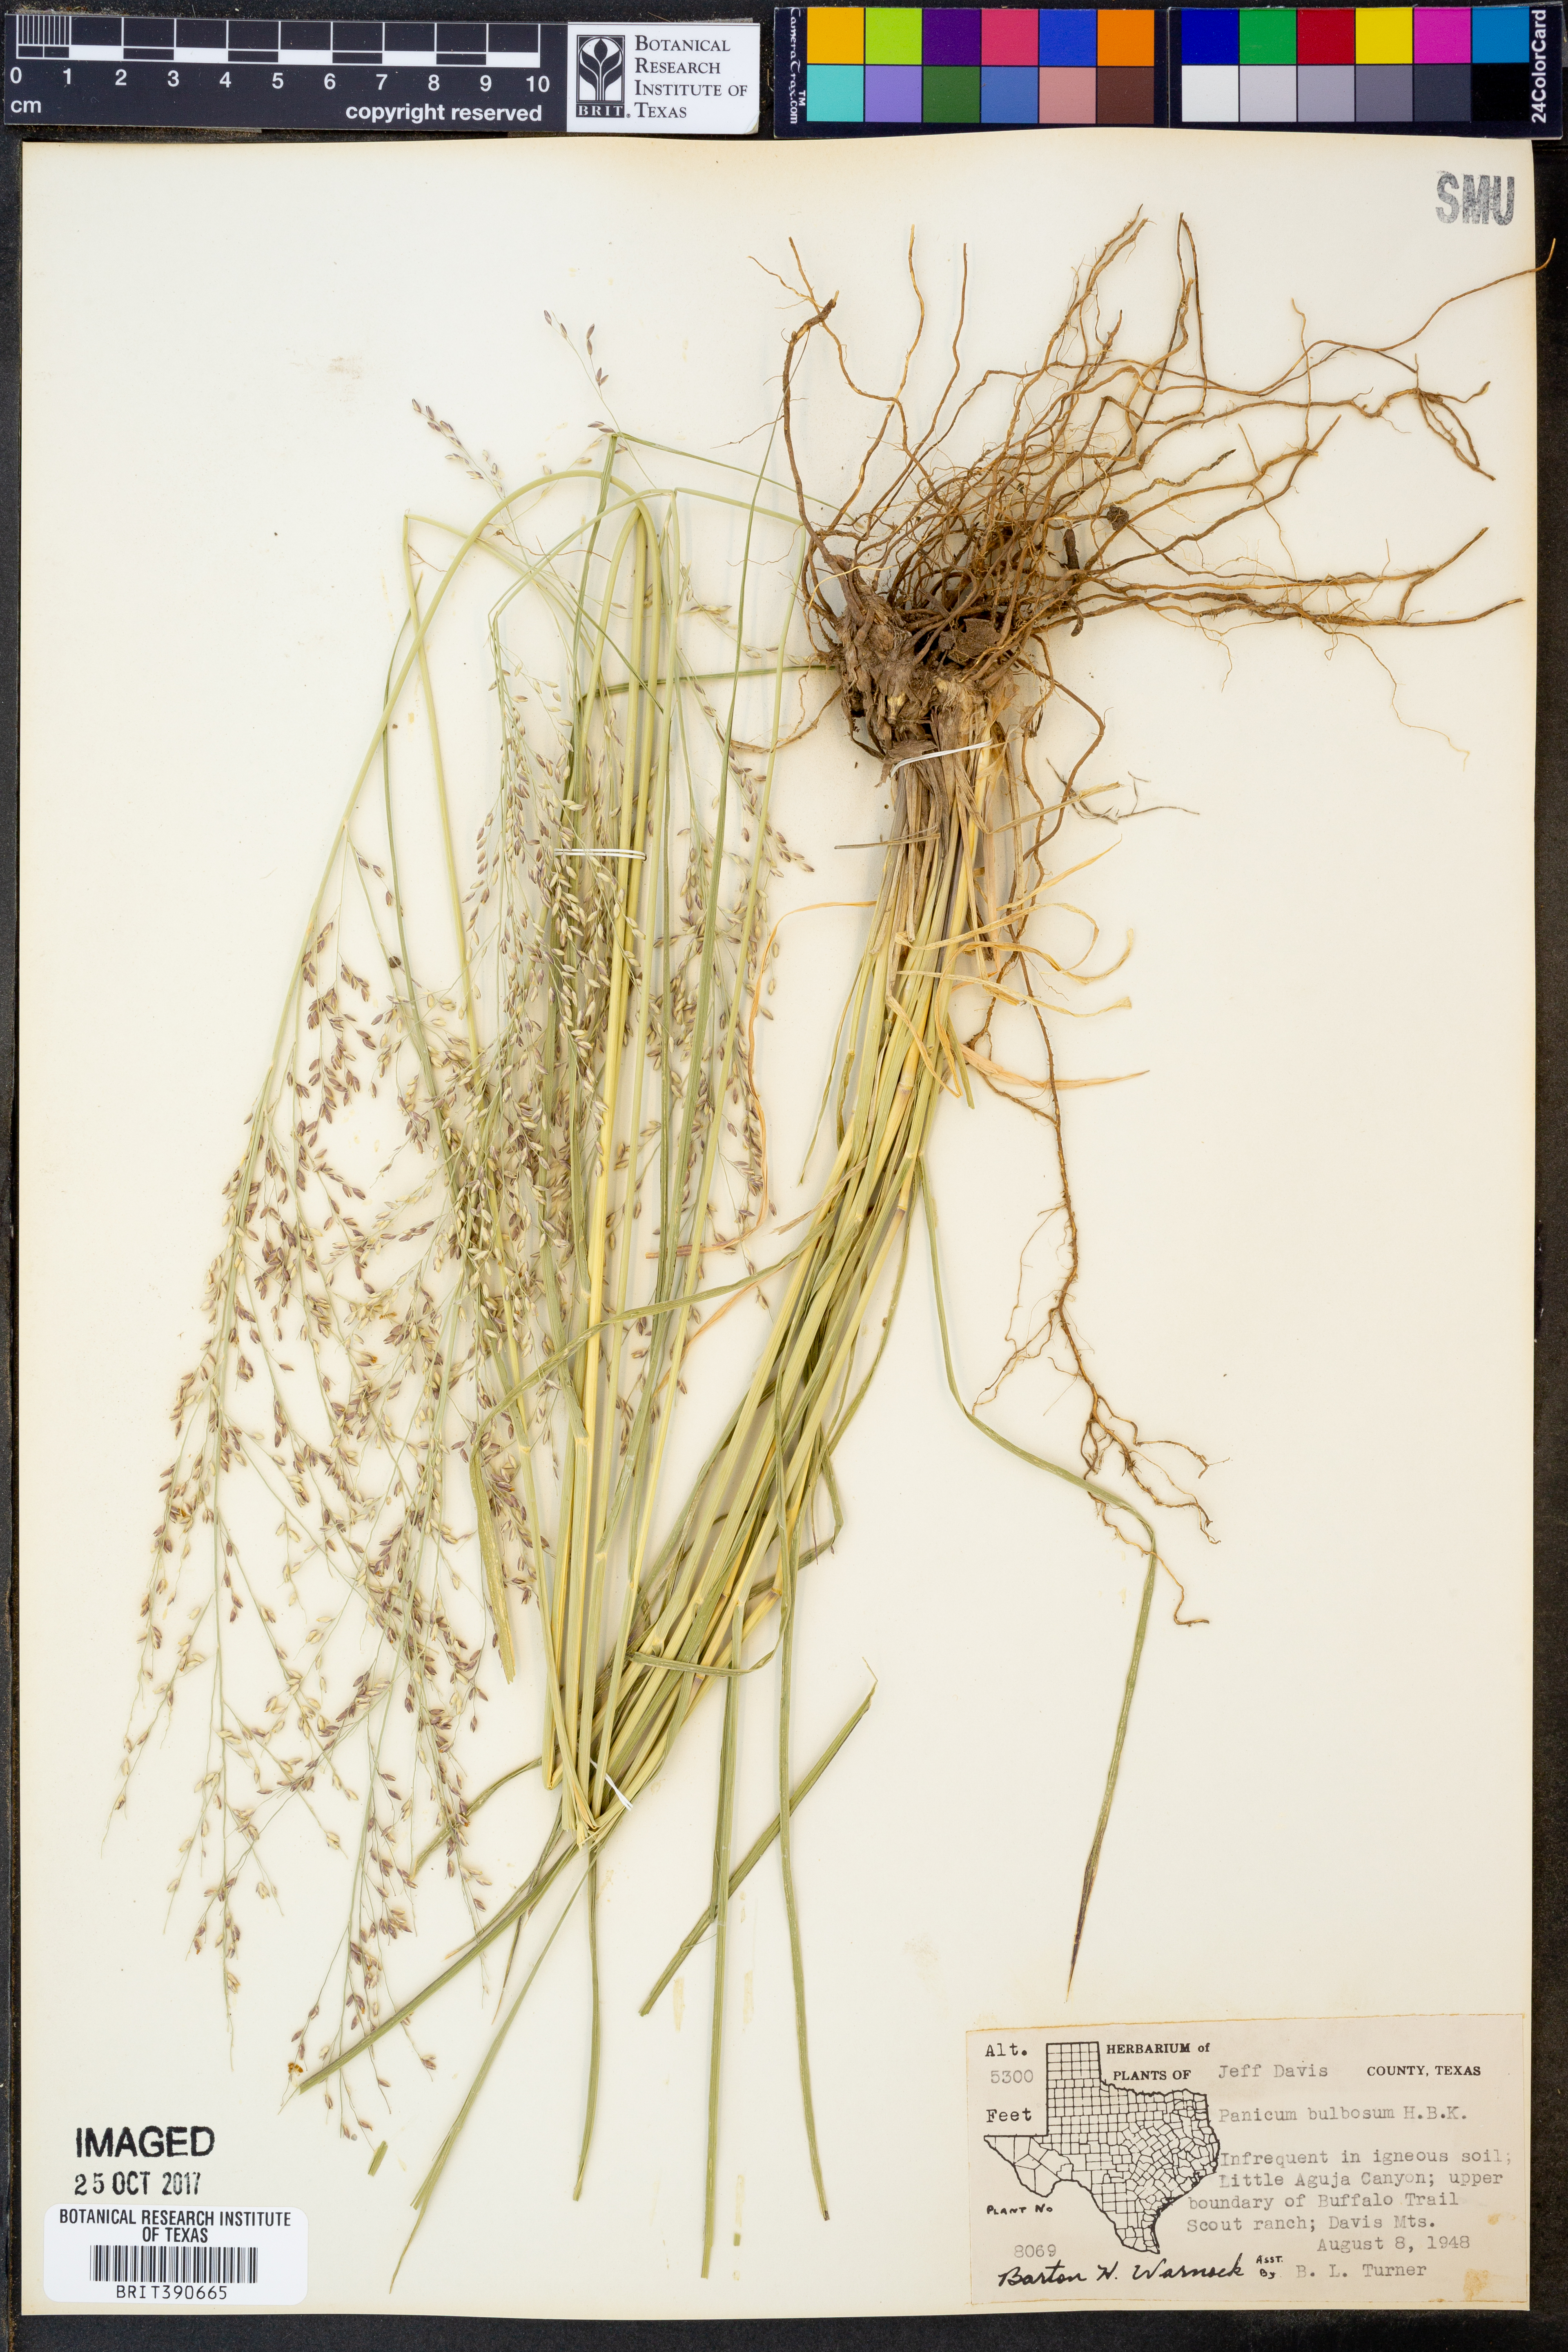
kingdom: Plantae
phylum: Tracheophyta
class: Liliopsida
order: Poales
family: Poaceae
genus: Zuloagaea
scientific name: Zuloagaea bulbosa
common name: Canyon panic grass
